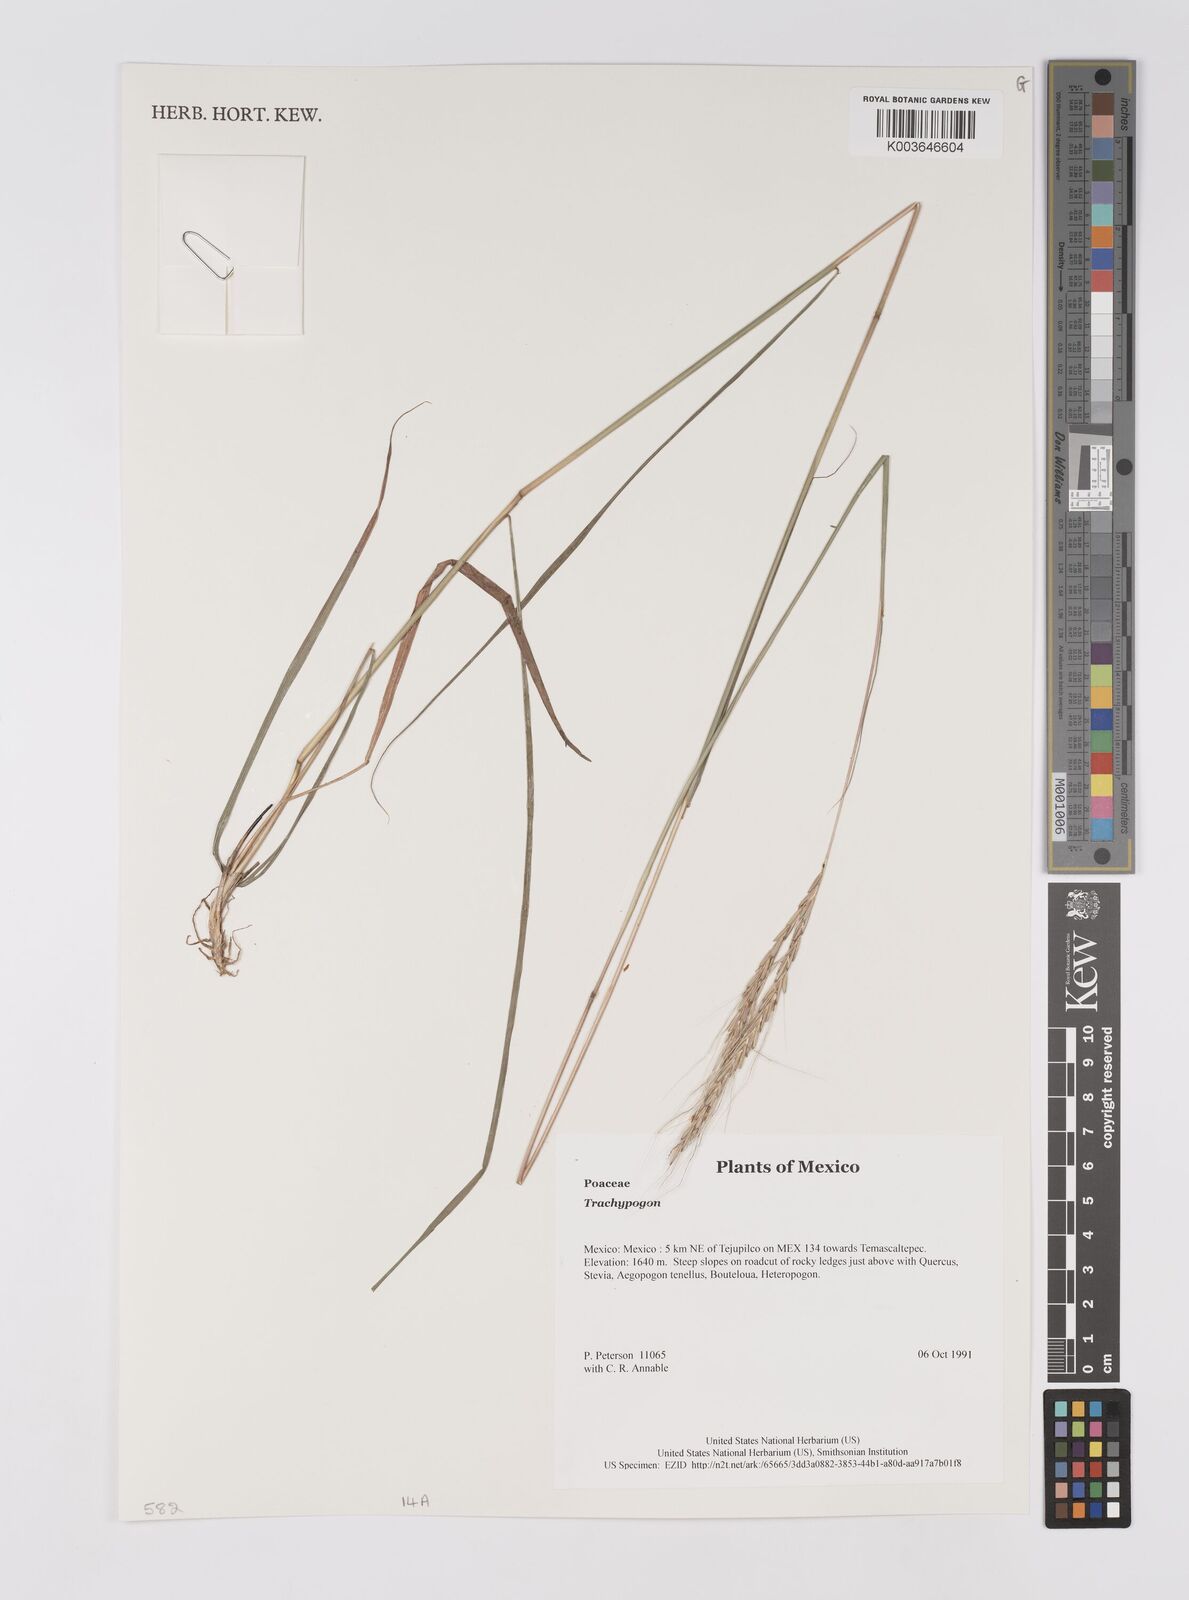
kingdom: Plantae
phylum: Tracheophyta
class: Liliopsida
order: Poales
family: Poaceae
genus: Trachypogon
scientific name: Trachypogon
